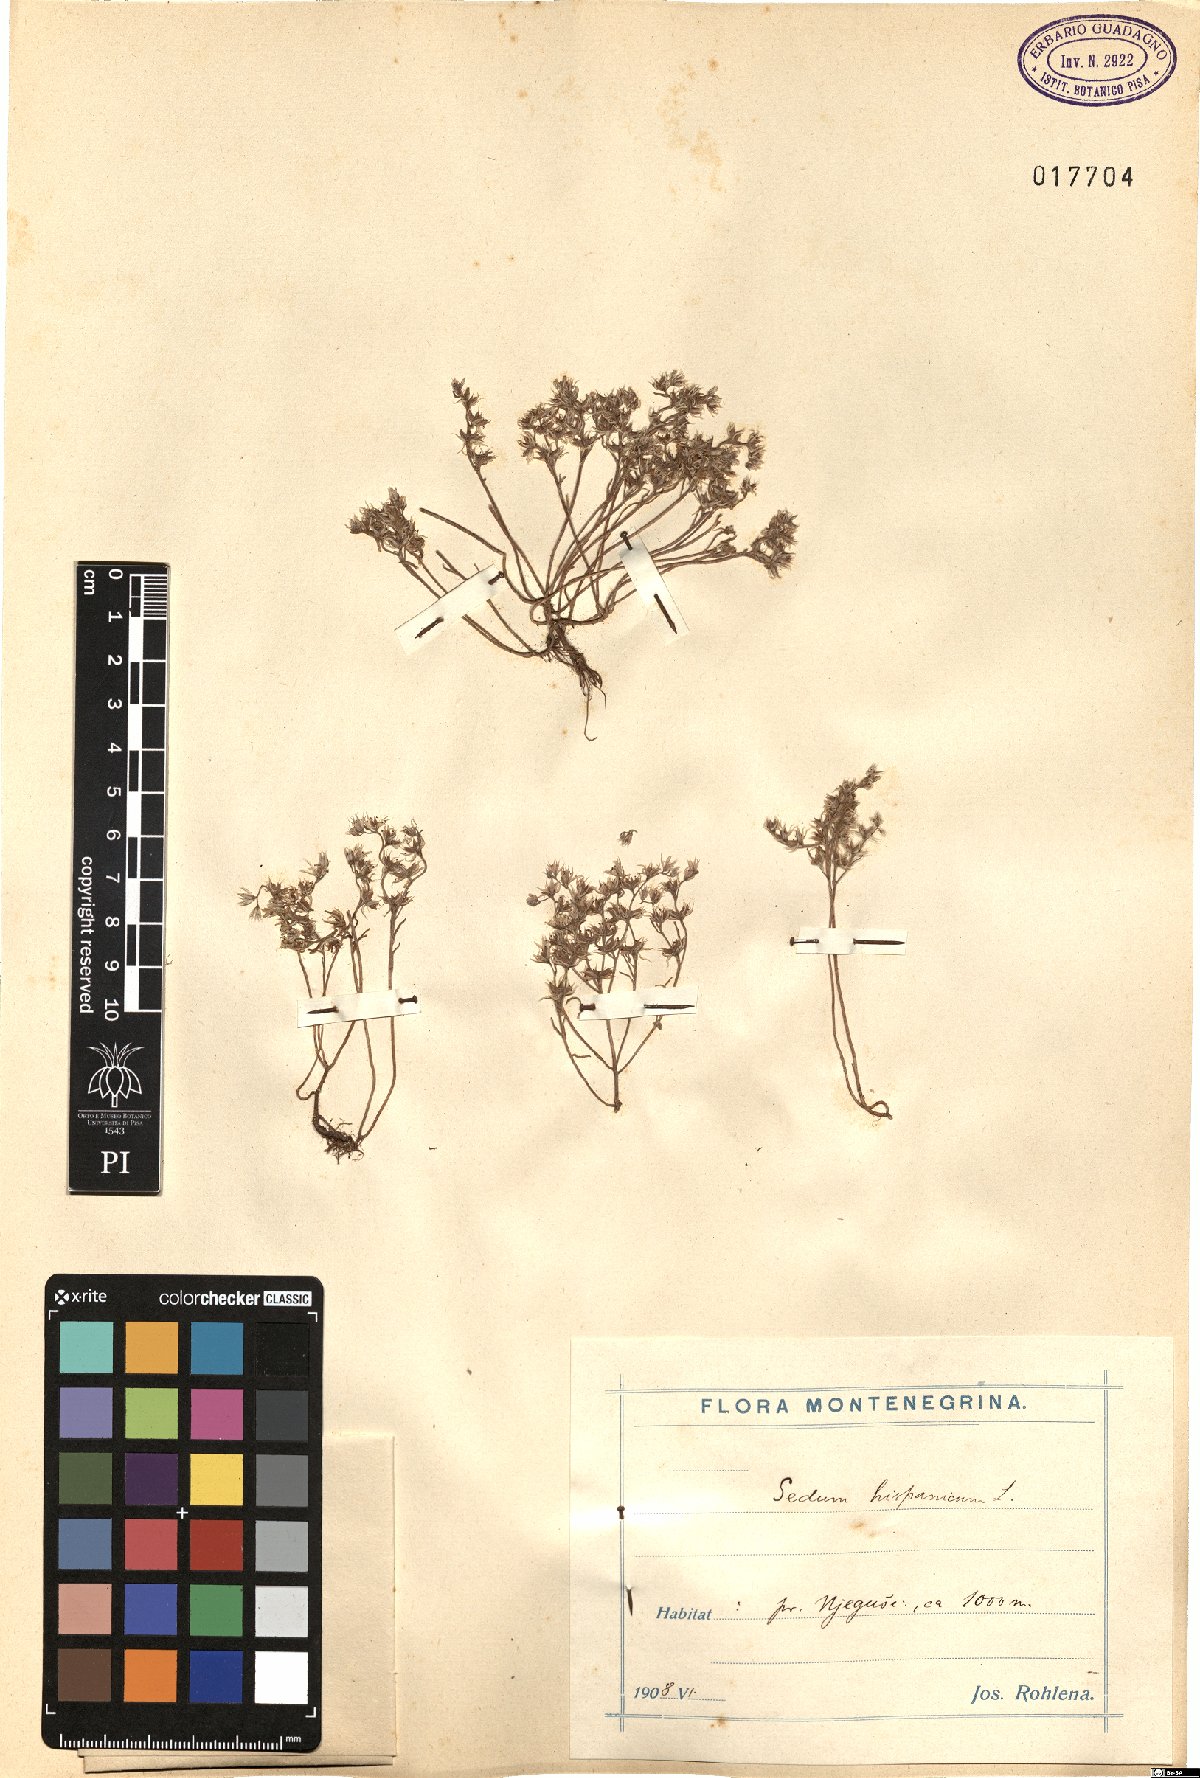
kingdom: Plantae
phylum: Tracheophyta
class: Magnoliopsida
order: Saxifragales
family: Crassulaceae
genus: Sedum
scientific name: Sedum hispanicum
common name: Spanish stonecrop
